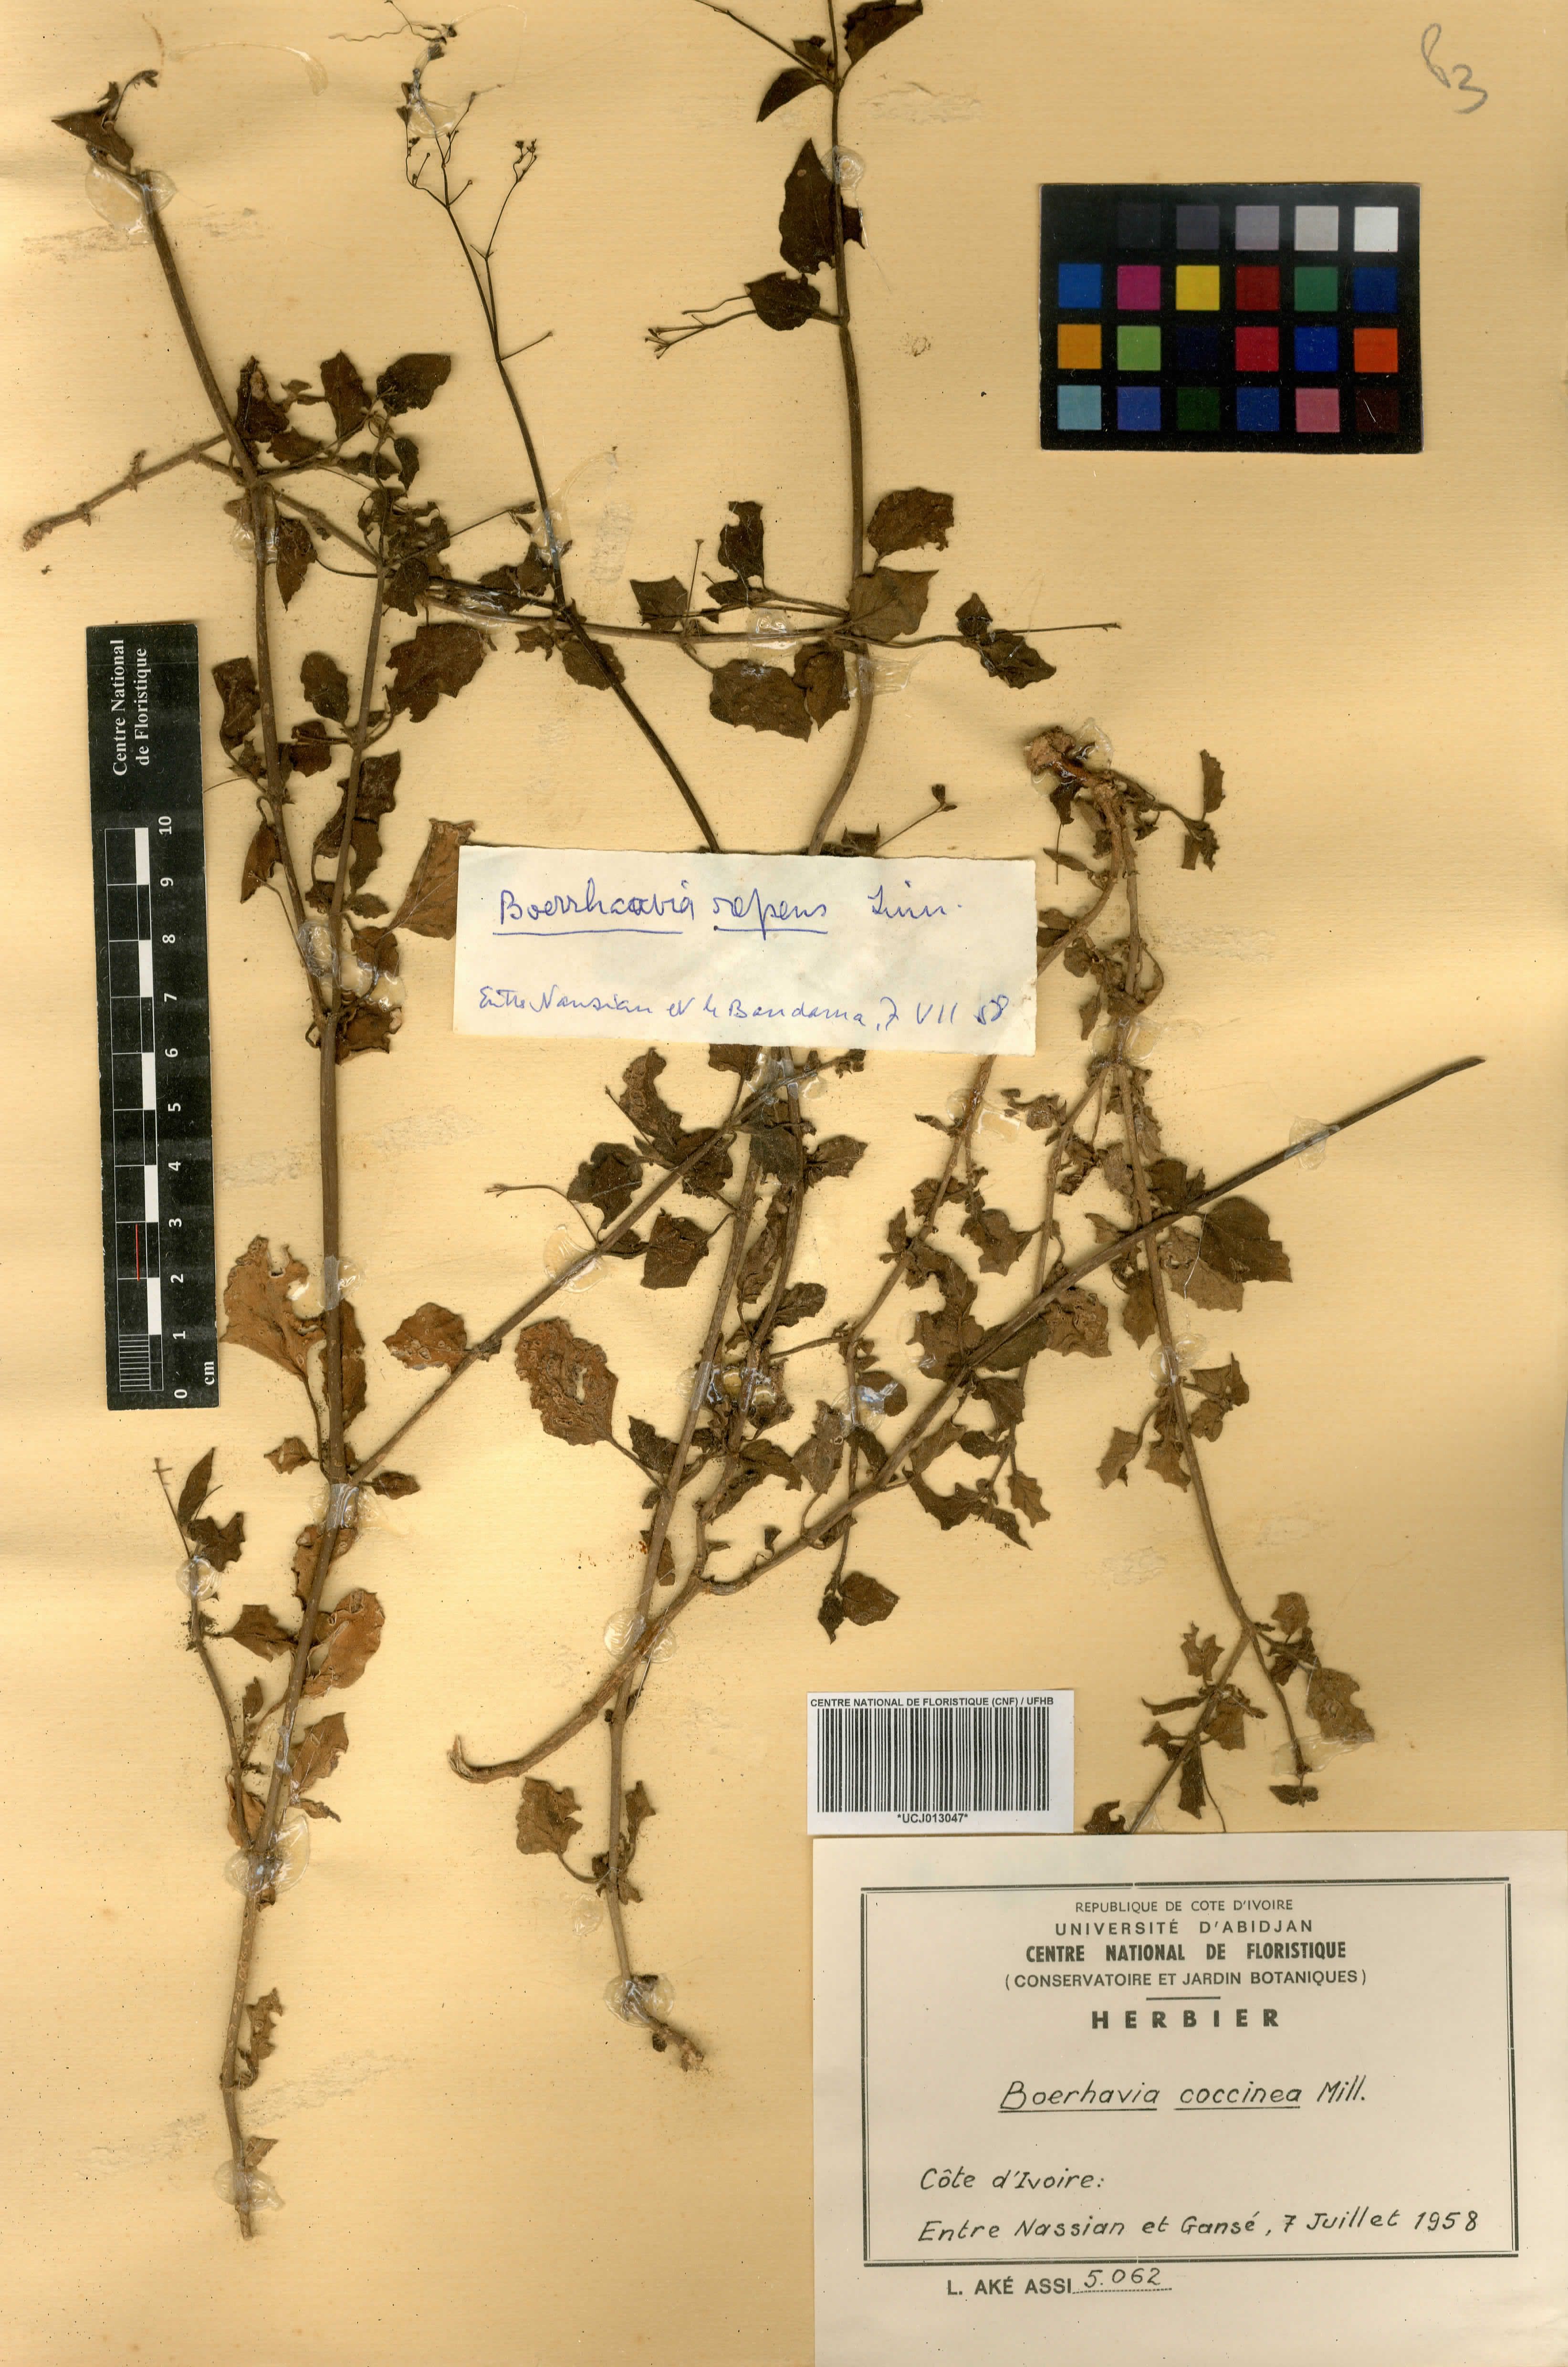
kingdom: Plantae
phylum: Tracheophyta
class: Magnoliopsida
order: Caryophyllales
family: Nyctaginaceae
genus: Boerhavia
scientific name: Boerhavia coccinea
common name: Scarlet spiderling
